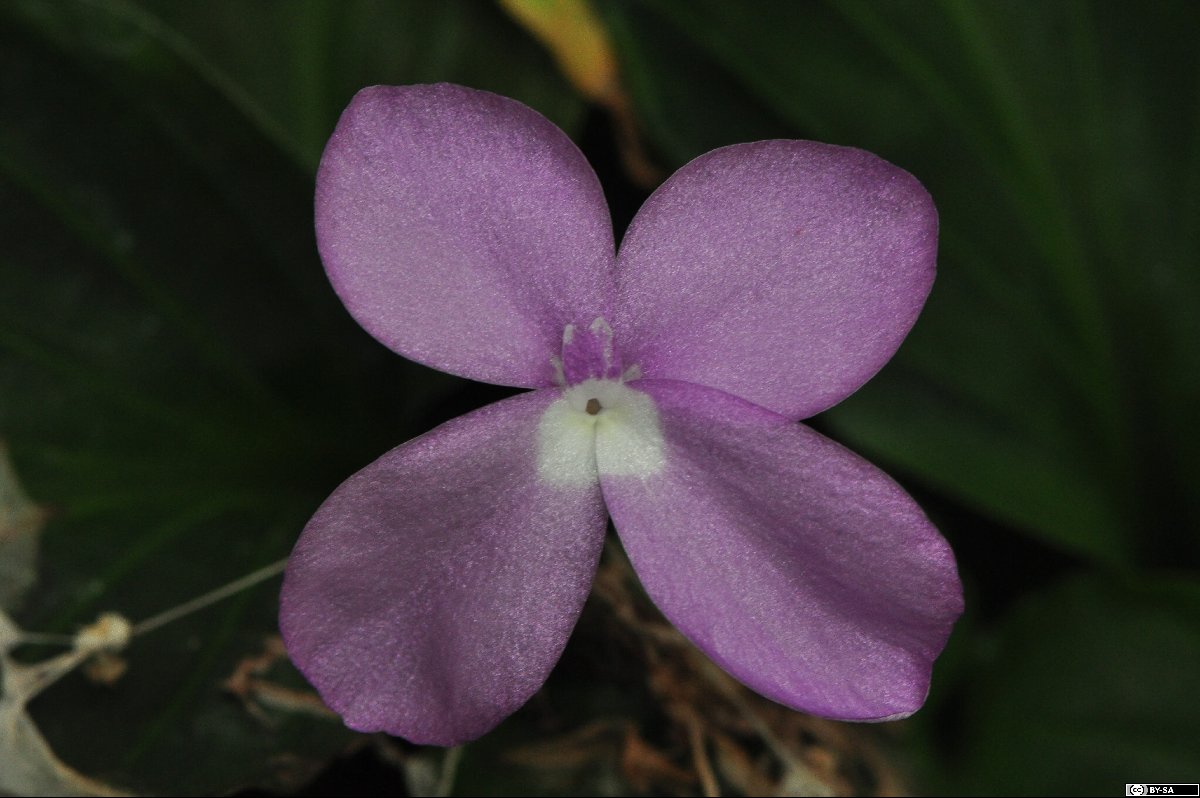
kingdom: Plantae
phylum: Tracheophyta
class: Liliopsida
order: Zingiberales
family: Zingiberaceae
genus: Kaempferia
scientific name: Kaempferia pulchra
